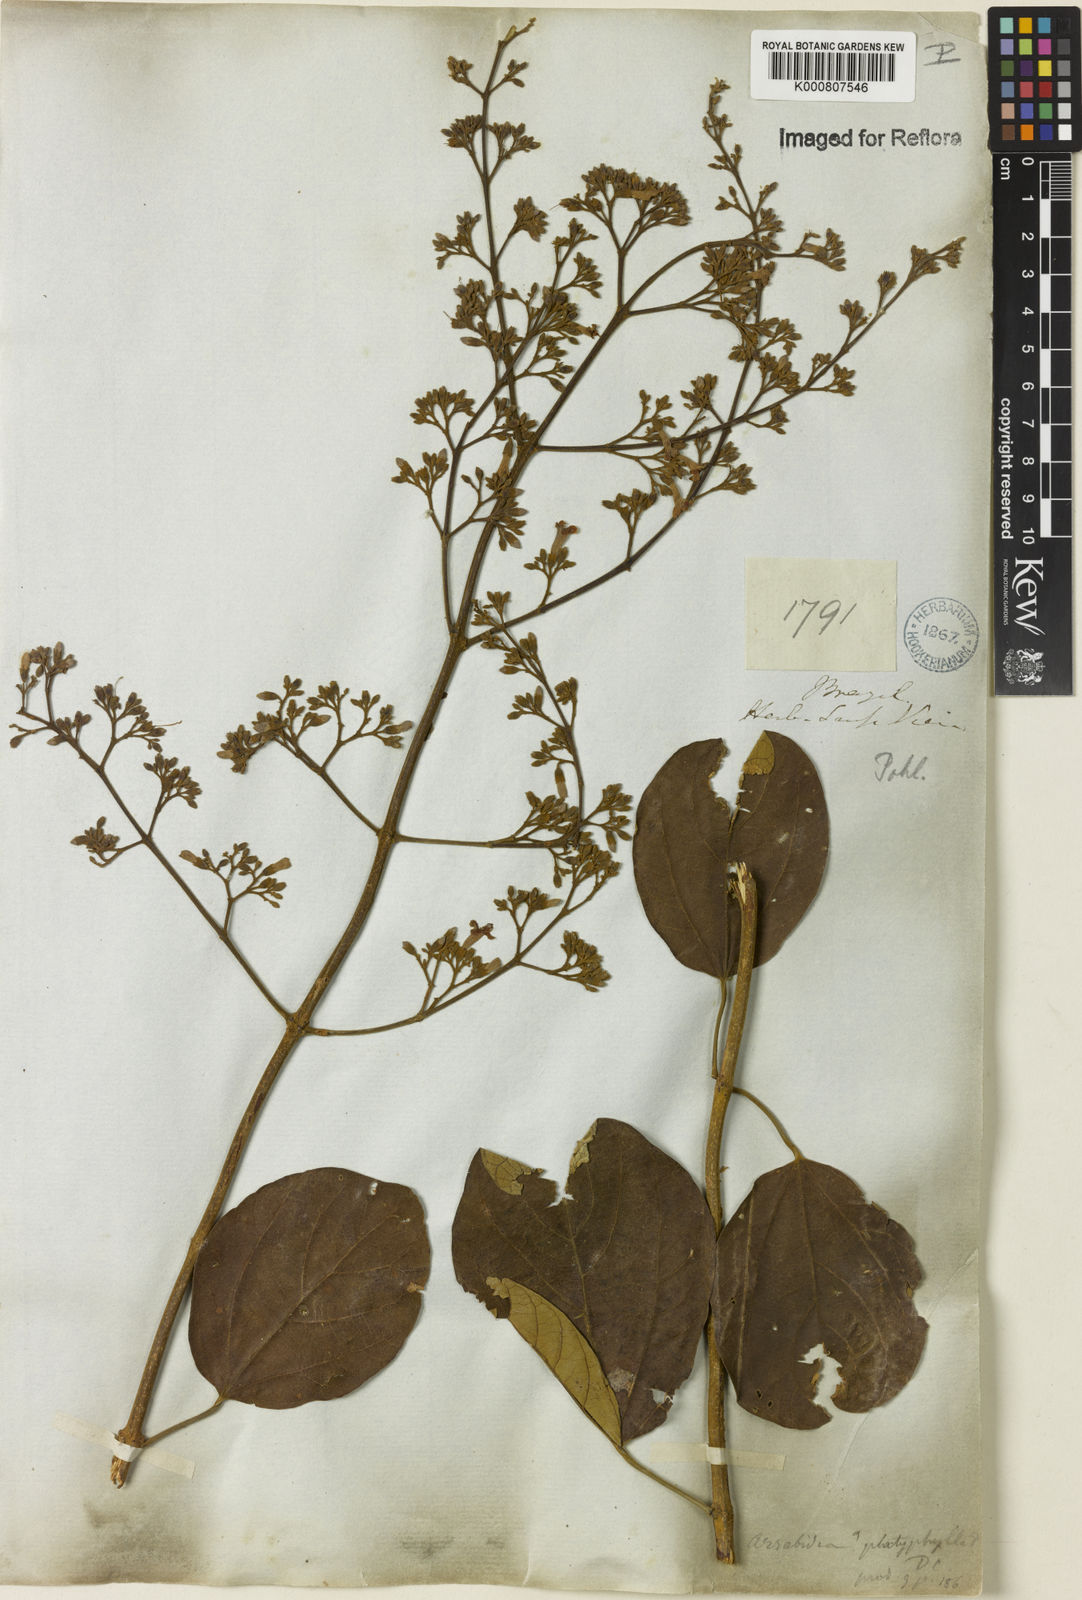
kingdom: Plantae
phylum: Tracheophyta
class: Magnoliopsida
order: Lamiales
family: Bignoniaceae
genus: Xylophragma
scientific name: Xylophragma platyphyllum
